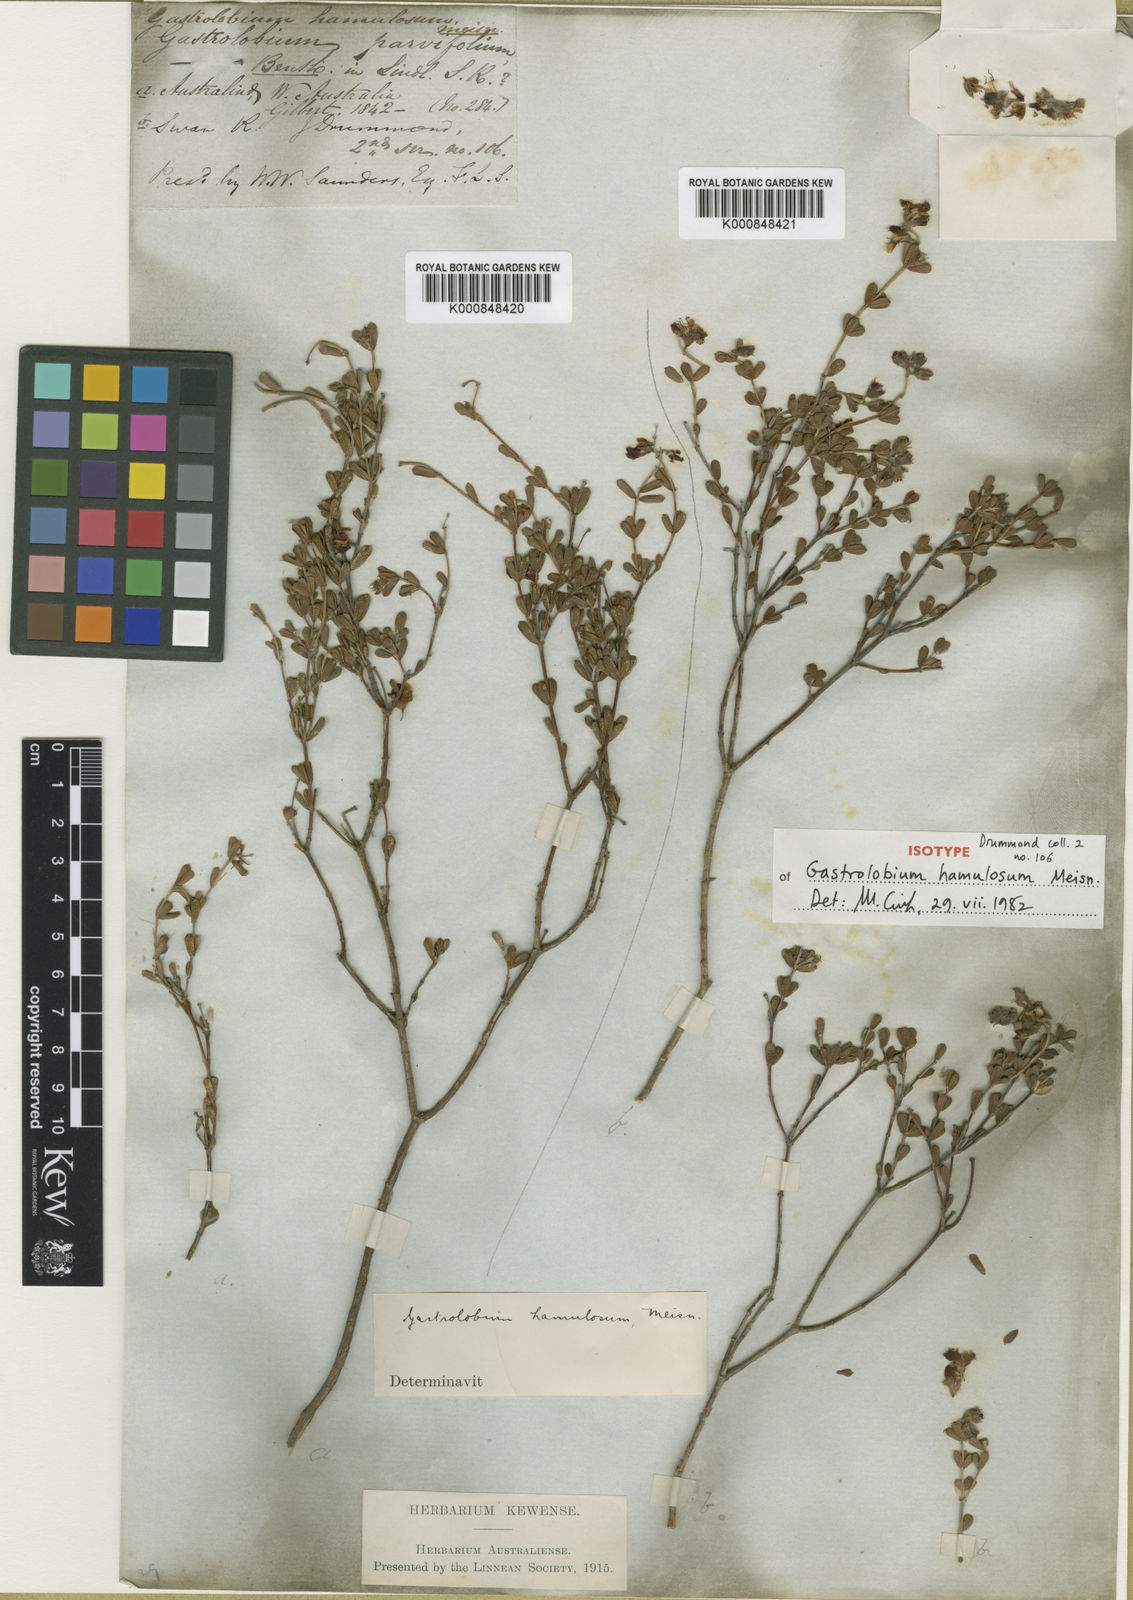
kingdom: Plantae
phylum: Tracheophyta
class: Magnoliopsida
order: Fabales
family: Fabaceae
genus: Gastrolobium
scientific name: Gastrolobium hamulosum
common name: Hook-point poisonbush
